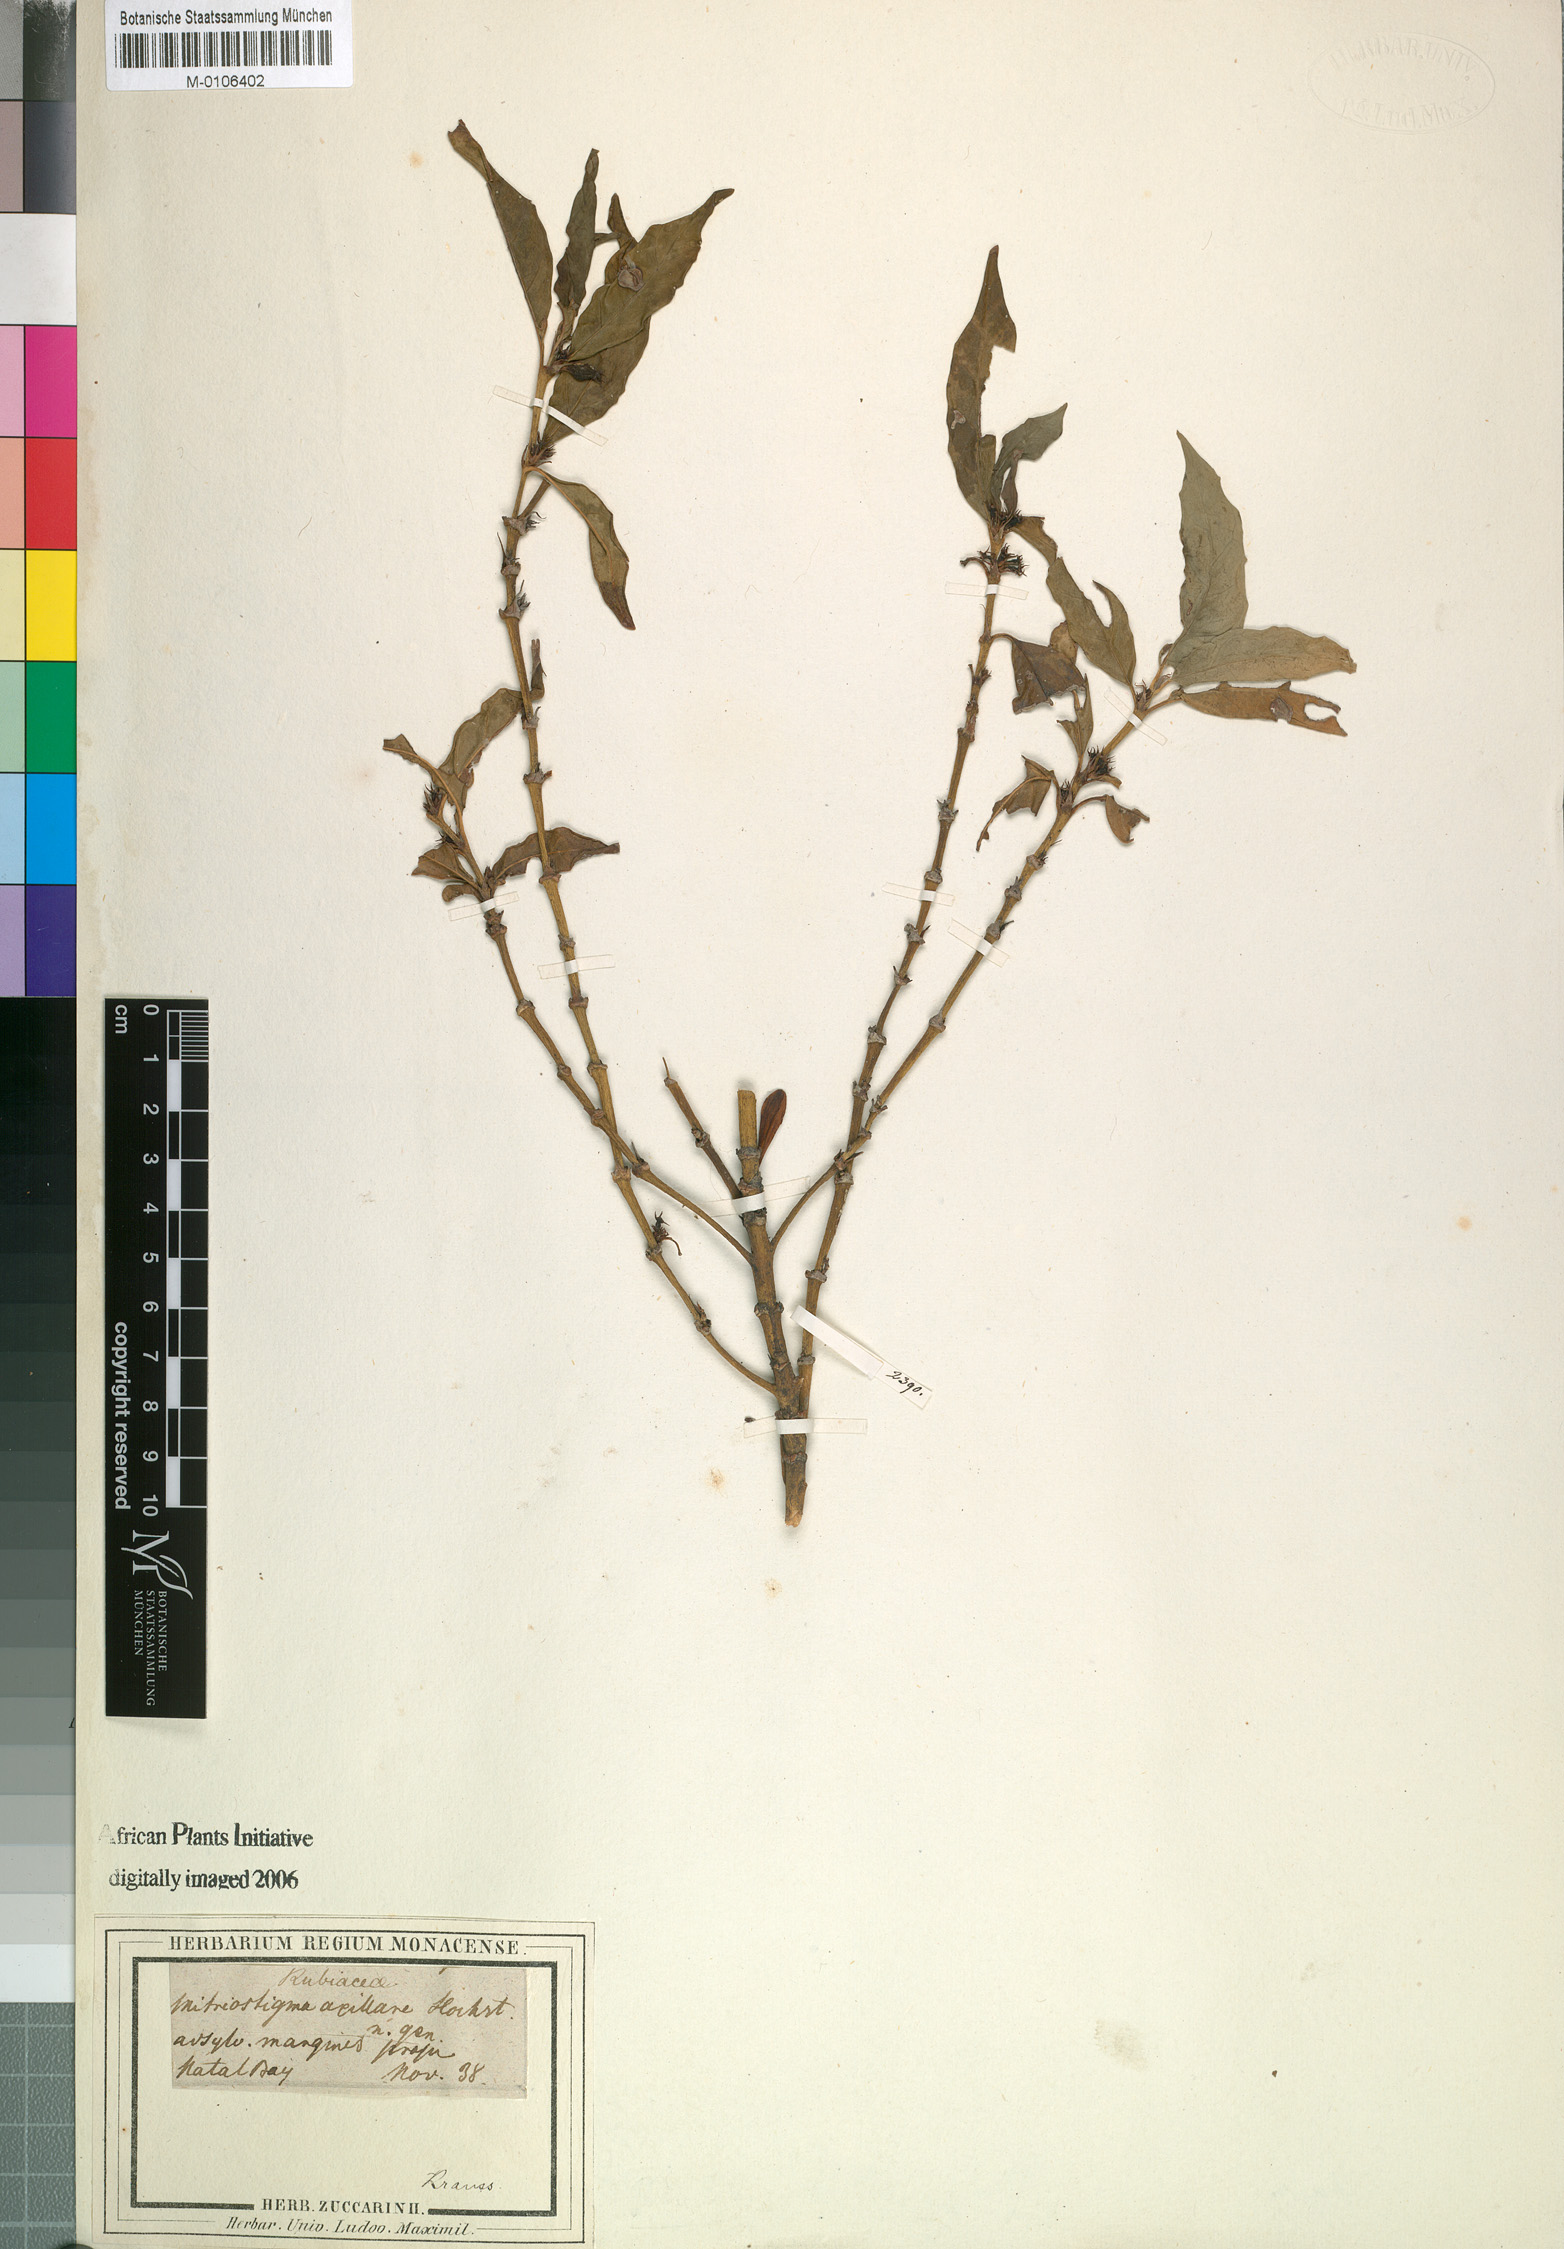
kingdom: Plantae
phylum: Tracheophyta
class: Magnoliopsida
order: Gentianales
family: Rubiaceae
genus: Mitriostigma
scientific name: Mitriostigma axillare
